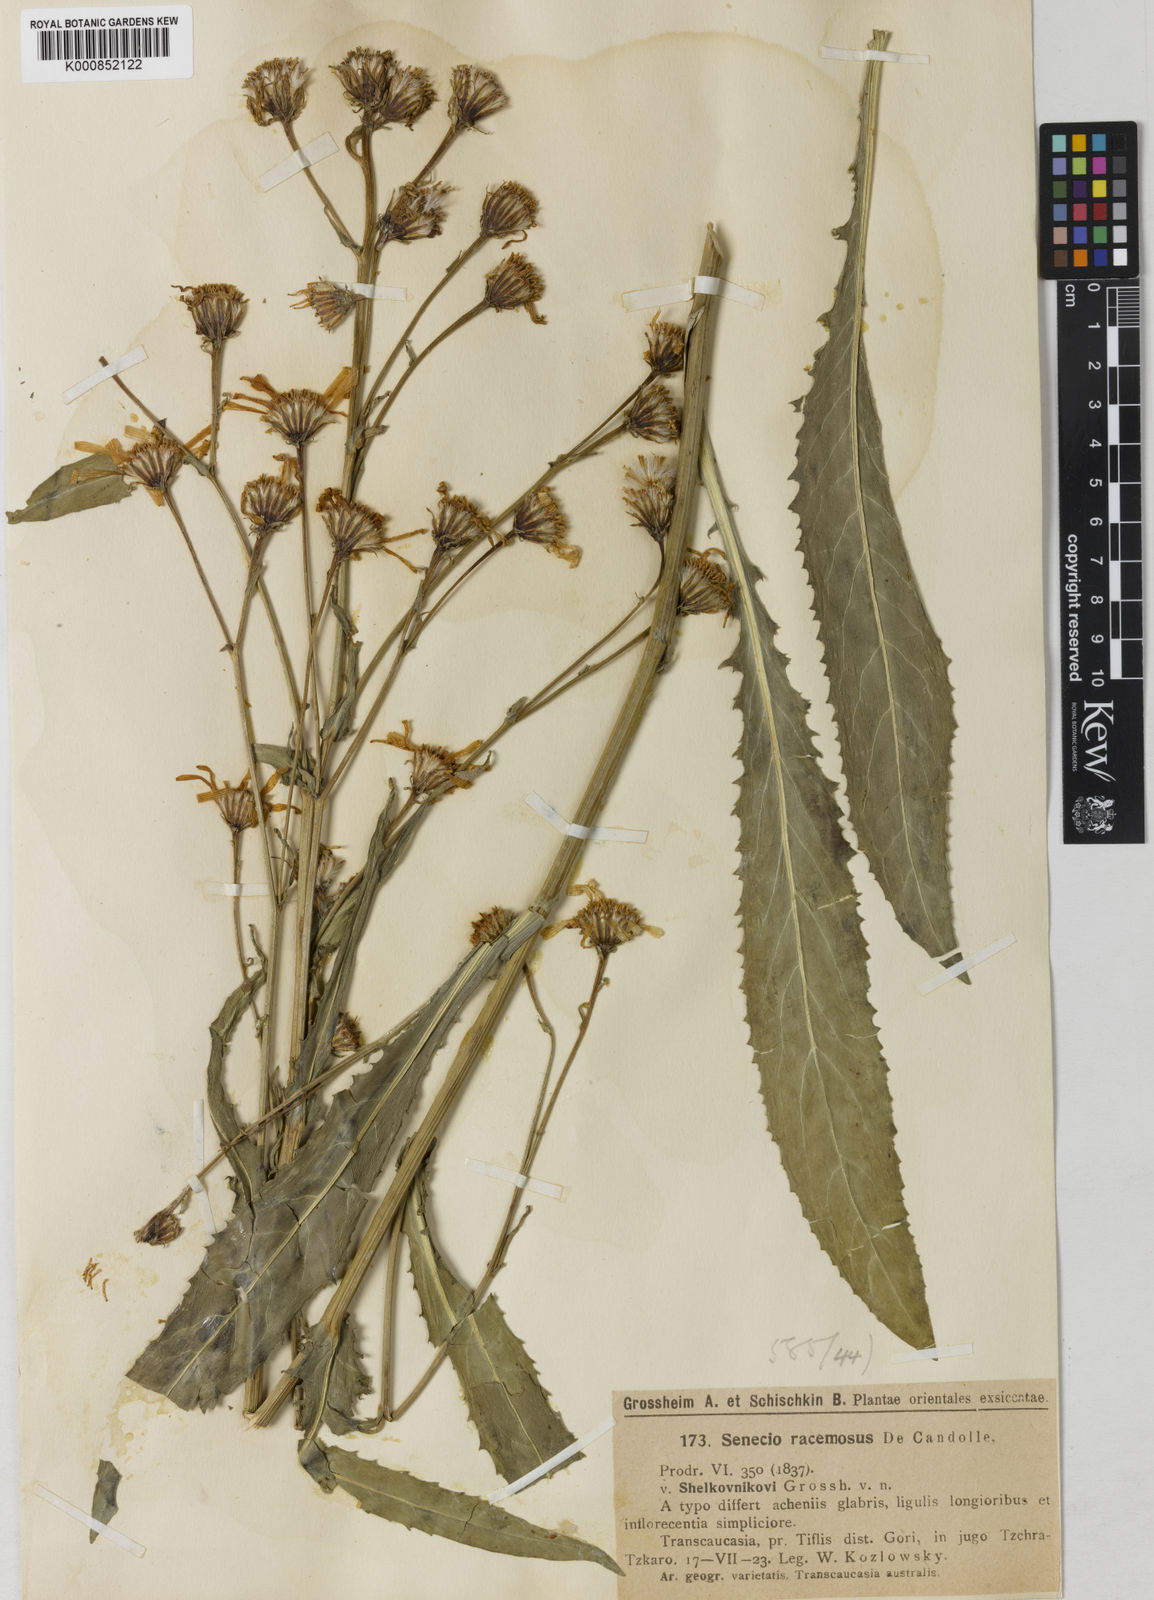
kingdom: Plantae
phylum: Tracheophyta
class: Magnoliopsida
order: Asterales
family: Asteraceae
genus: Jacobaea
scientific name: Jacobaea racemosa
